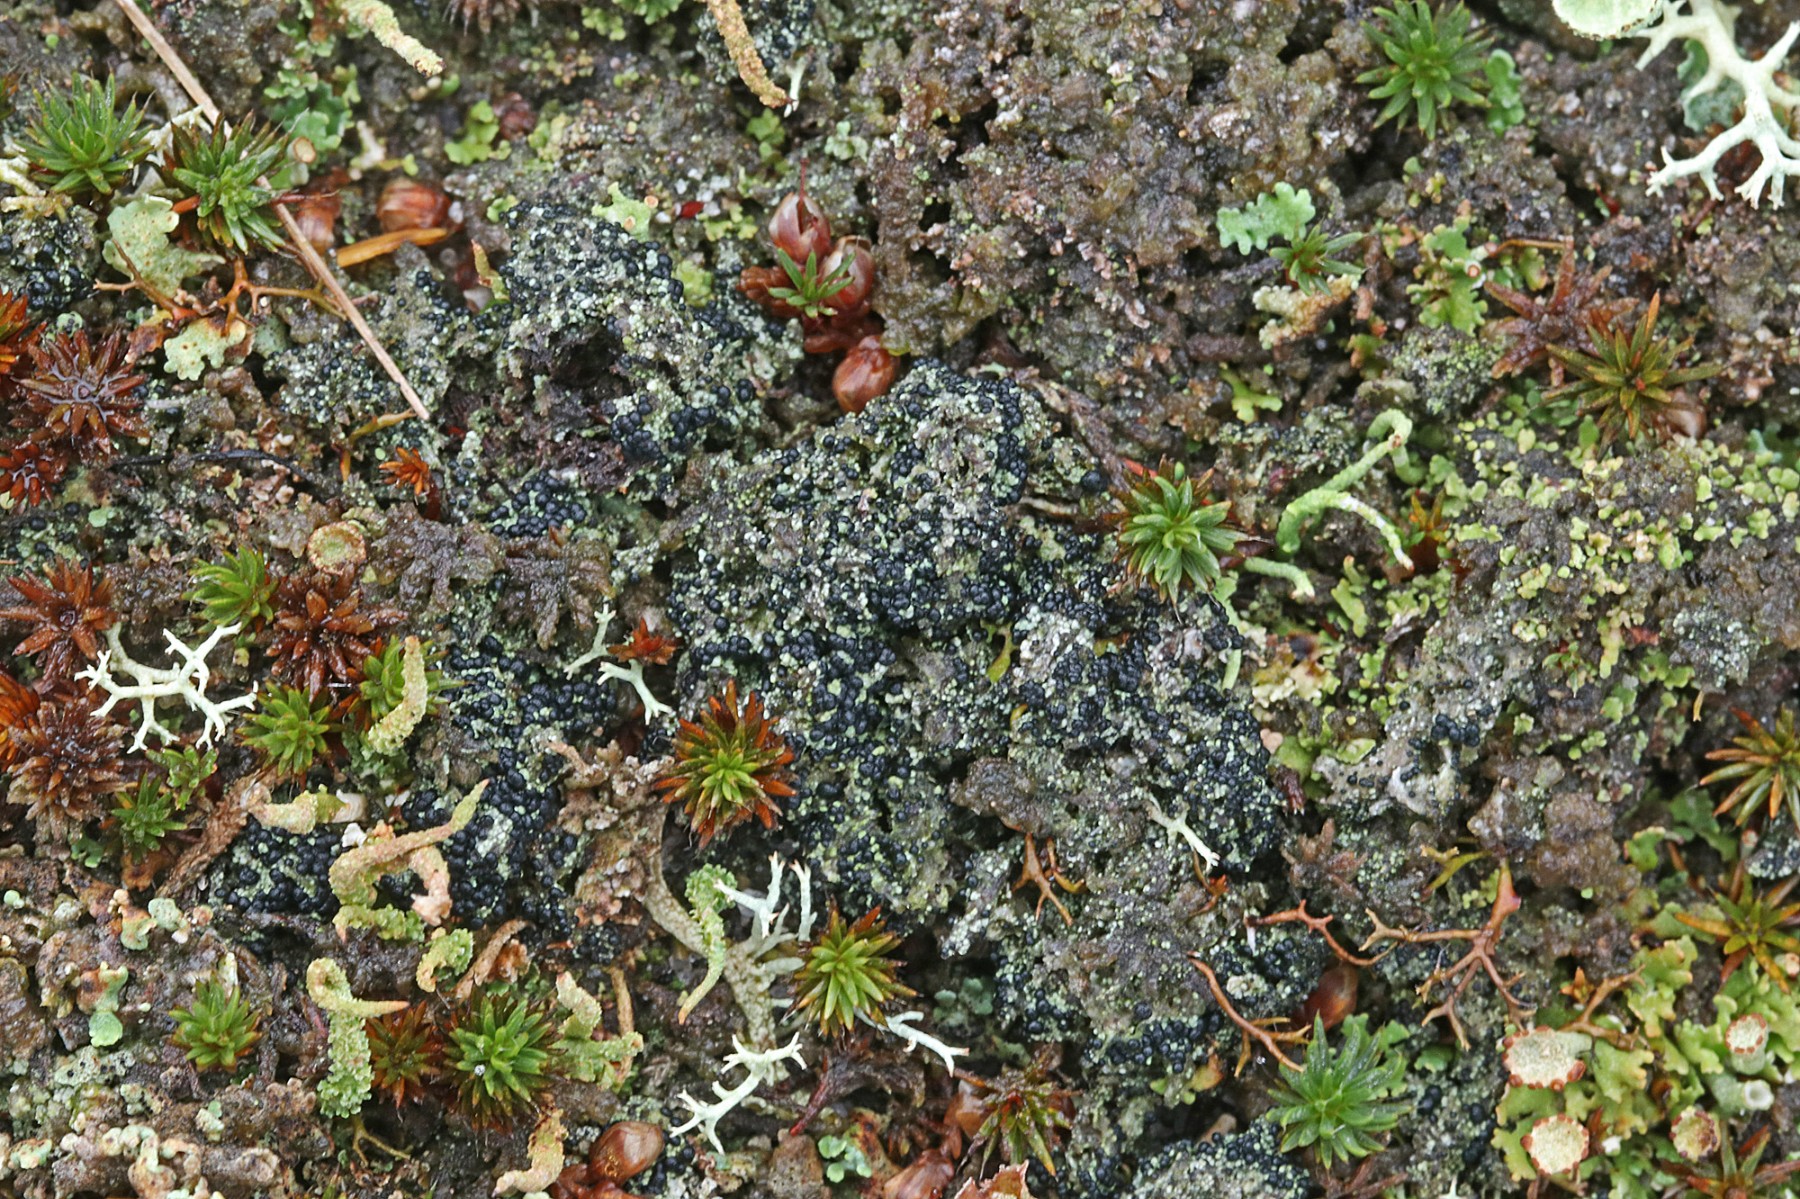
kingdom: Fungi
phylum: Ascomycota
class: Lecanoromycetes
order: Lecanorales
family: Byssolomataceae
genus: Micarea
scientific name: Micarea lignaria
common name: tørve-knaplav
